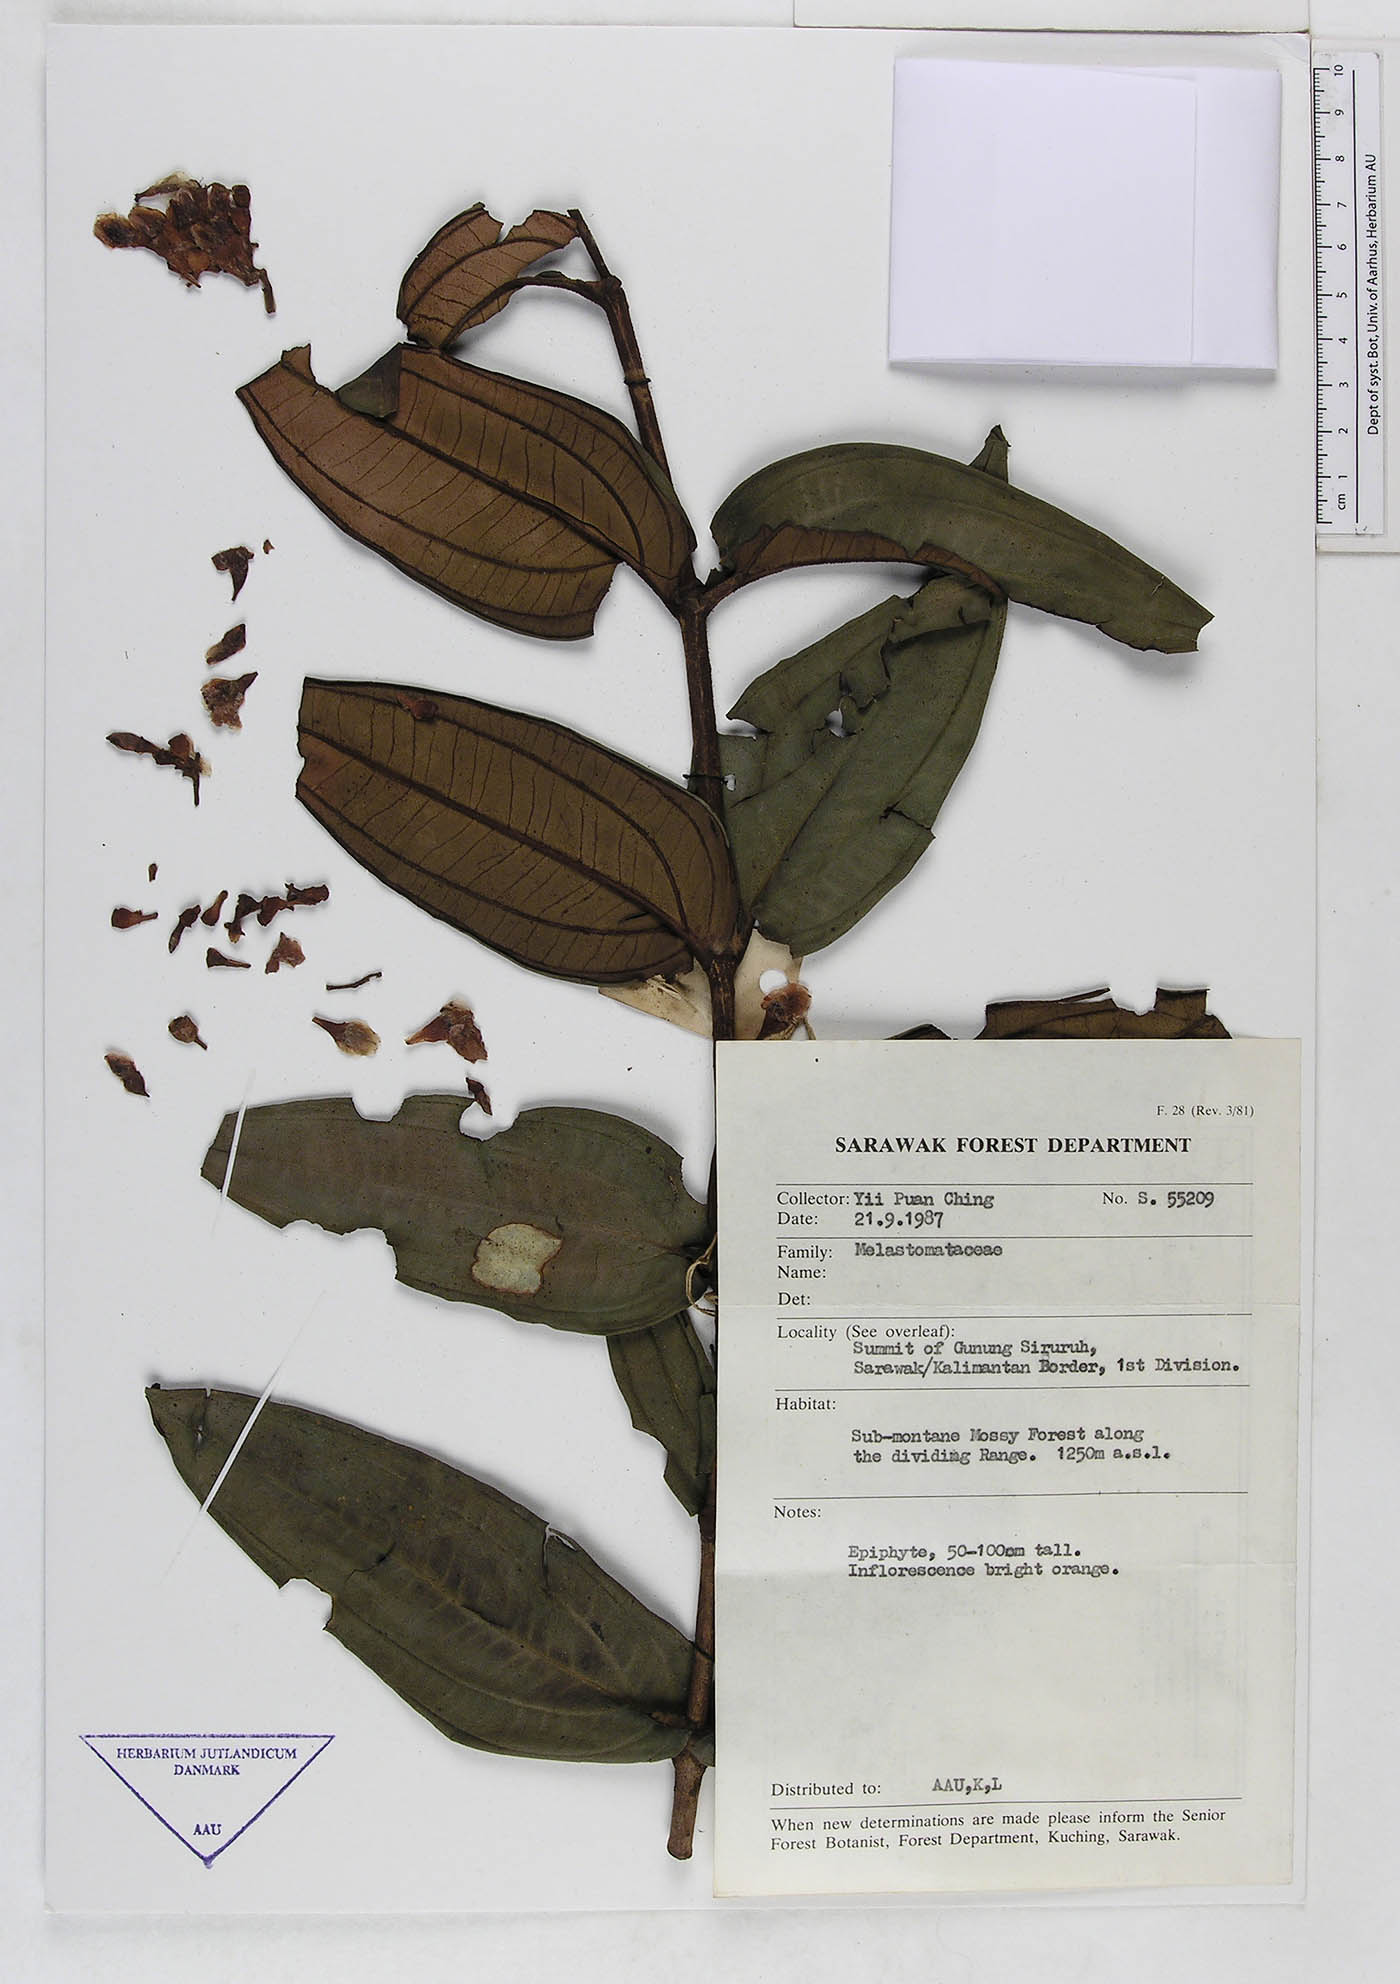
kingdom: Plantae
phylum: Tracheophyta
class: Magnoliopsida
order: Myrtales
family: Melastomataceae
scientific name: Melastomataceae
